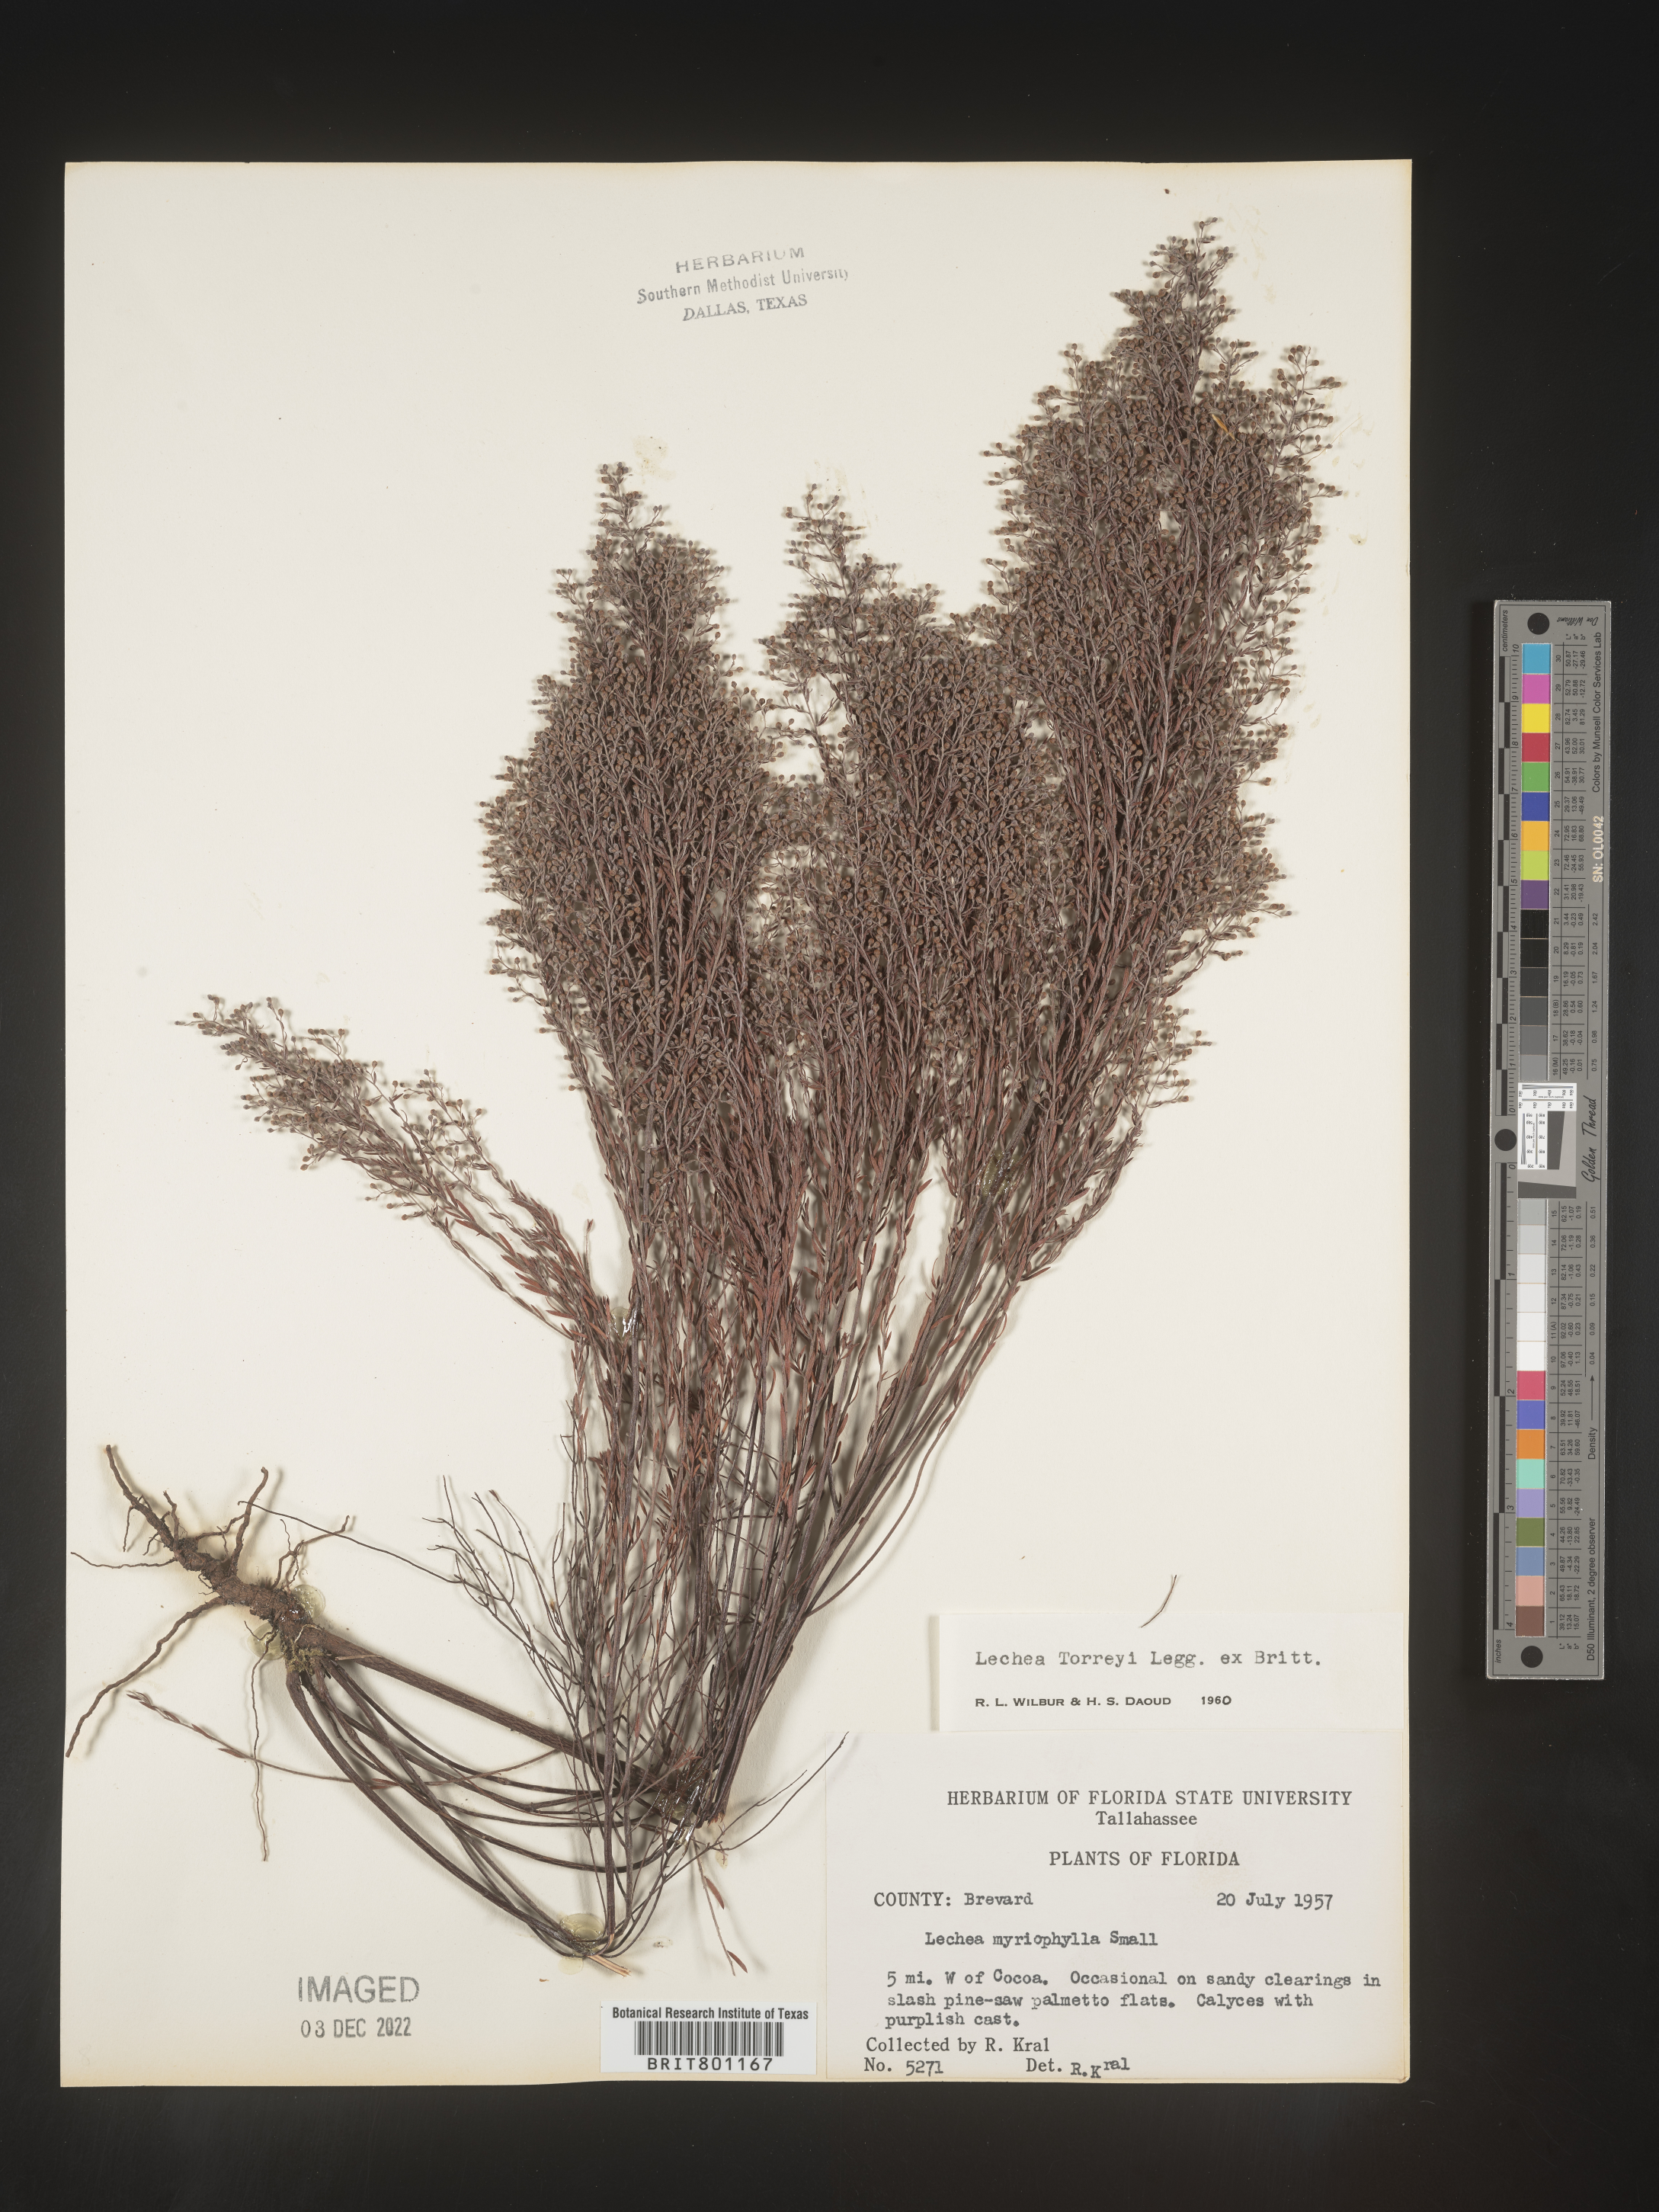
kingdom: Plantae
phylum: Tracheophyta
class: Magnoliopsida
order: Malvales
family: Cistaceae
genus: Lechea
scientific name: Lechea torreyi
